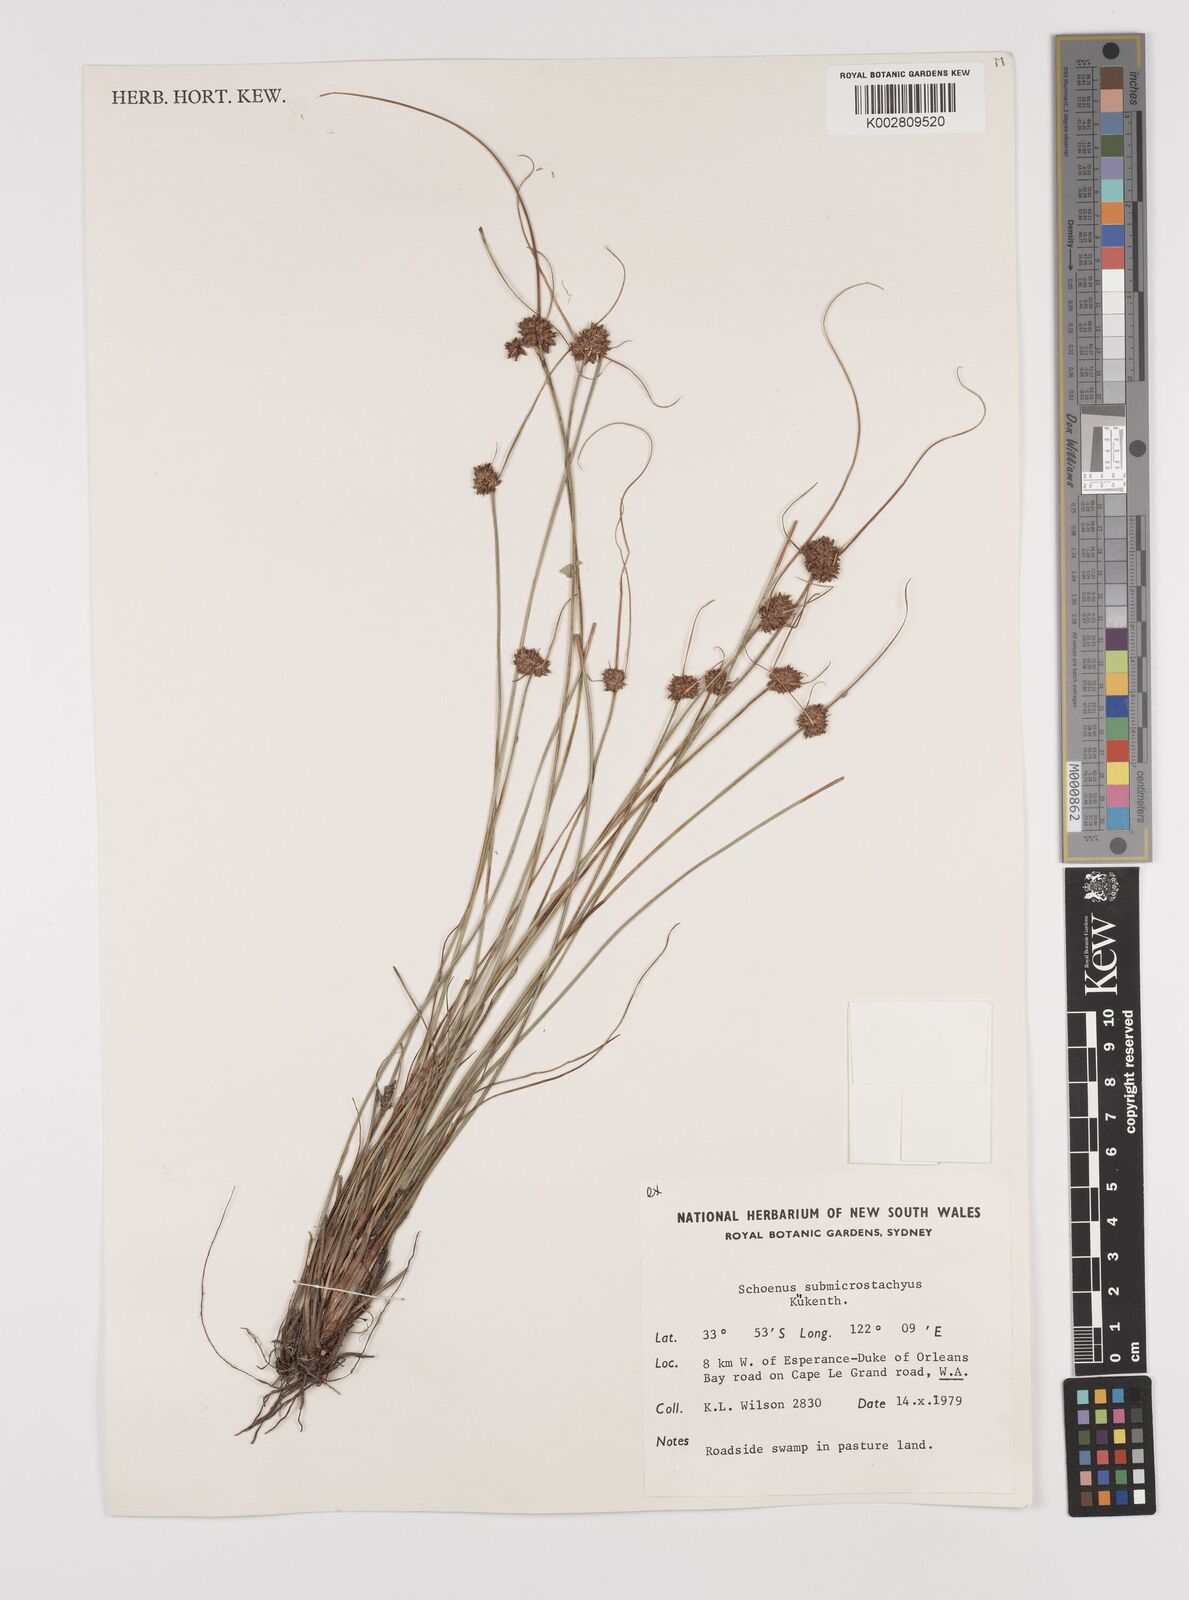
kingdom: Plantae
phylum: Tracheophyta
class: Liliopsida
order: Poales
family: Cyperaceae
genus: Schoenus
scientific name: Schoenus submicrostachyus
